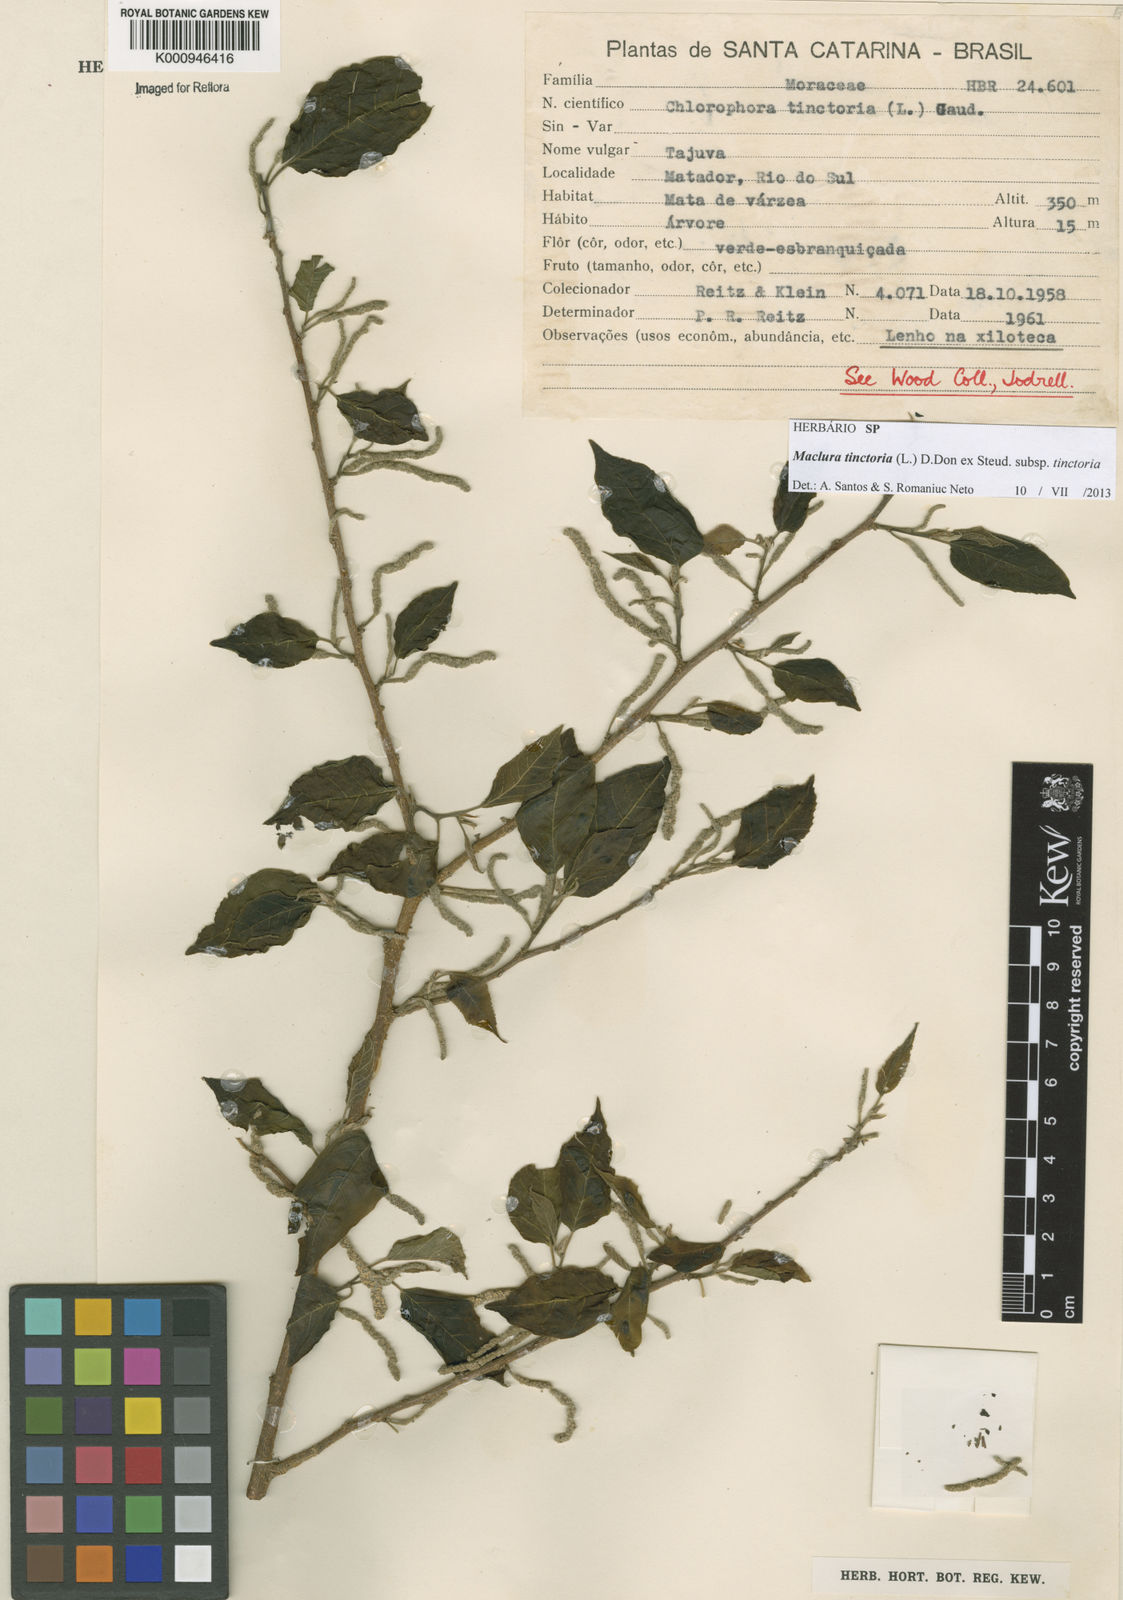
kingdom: Plantae
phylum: Tracheophyta
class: Magnoliopsida
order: Rosales
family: Moraceae
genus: Maclura
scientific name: Maclura
